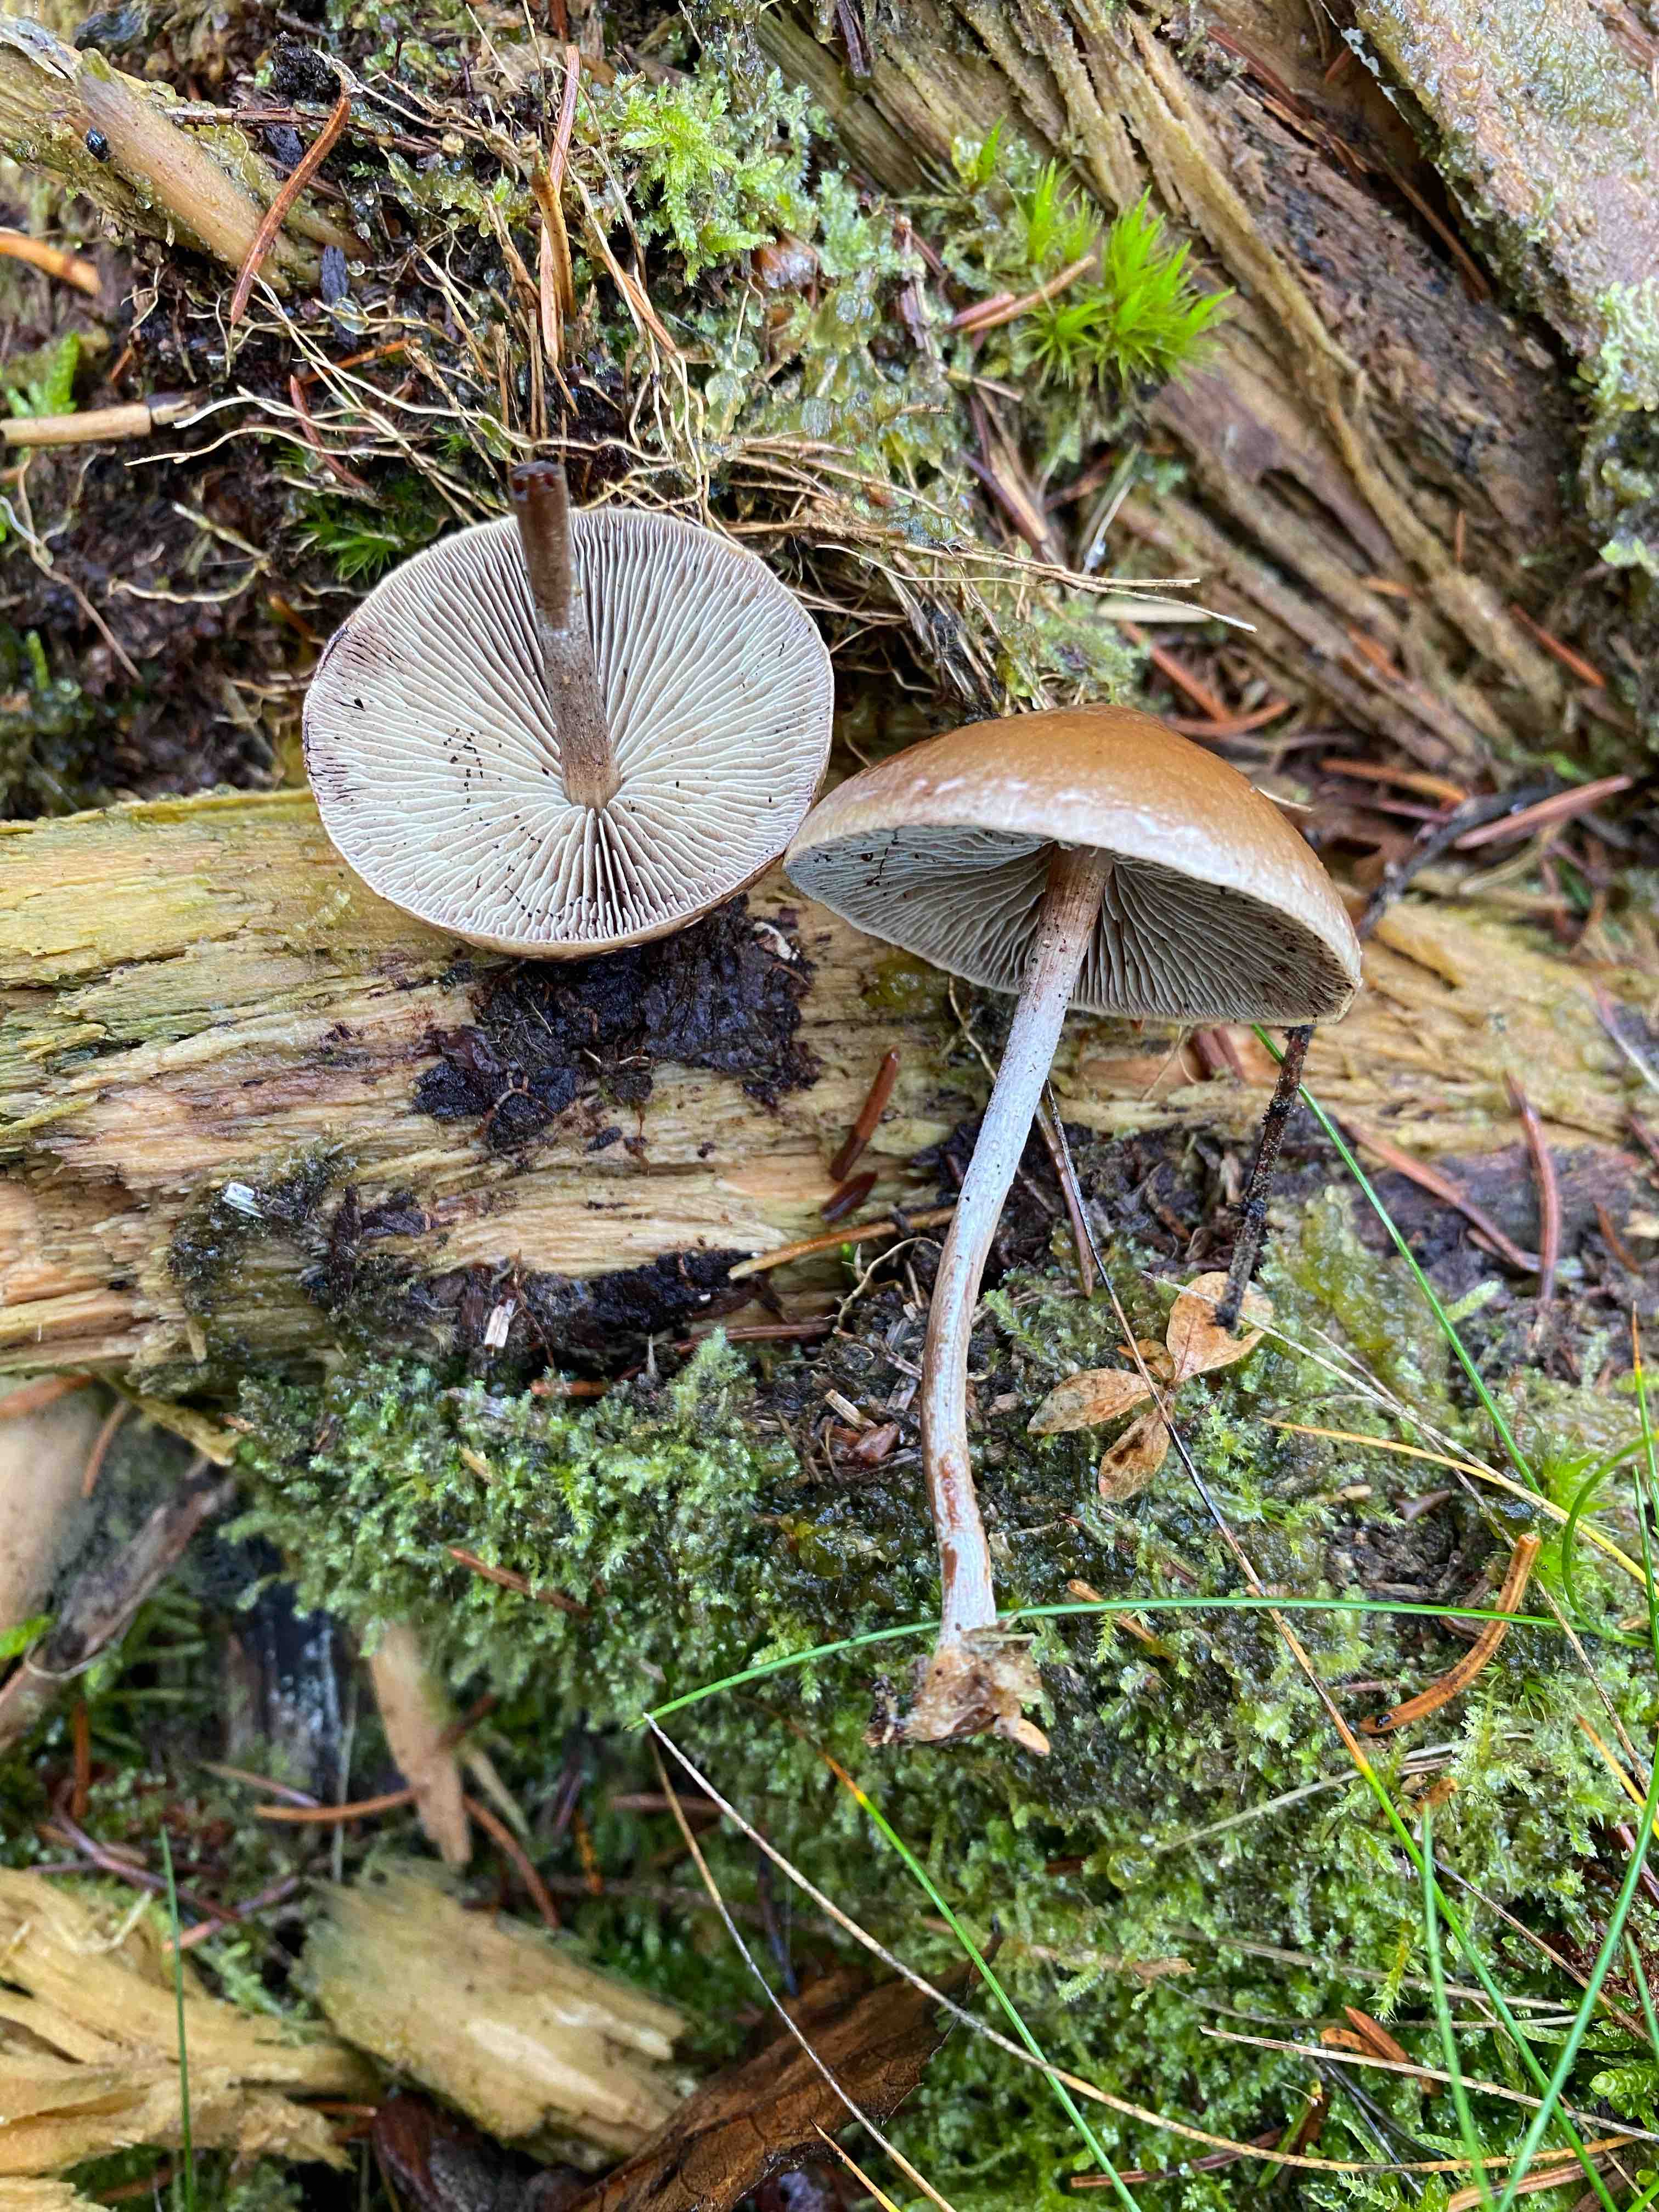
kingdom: Fungi
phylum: Basidiomycota
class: Agaricomycetes
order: Agaricales
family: Strophariaceae
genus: Hypholoma
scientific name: Hypholoma marginatum
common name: enlig svovlhat
